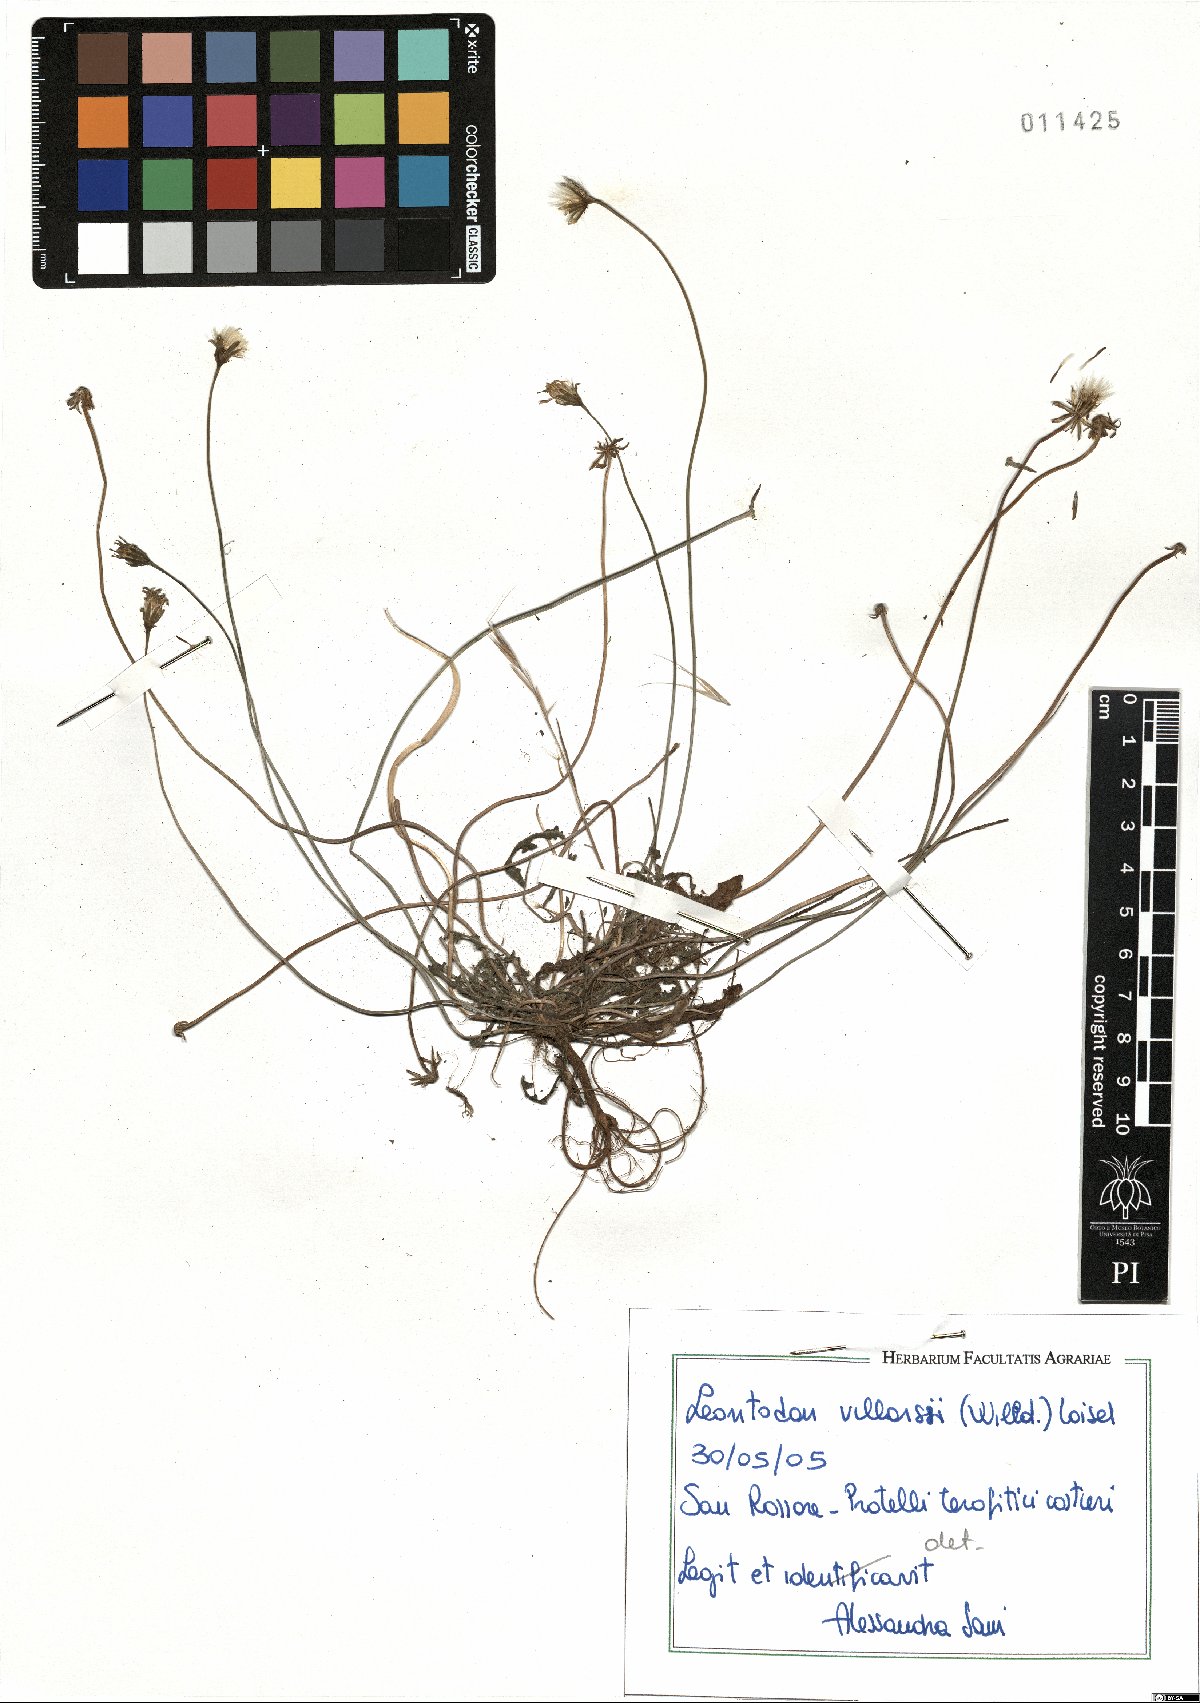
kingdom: Plantae
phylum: Tracheophyta
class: Magnoliopsida
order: Asterales
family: Asteraceae
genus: Leontodon
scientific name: Leontodon hirtus
